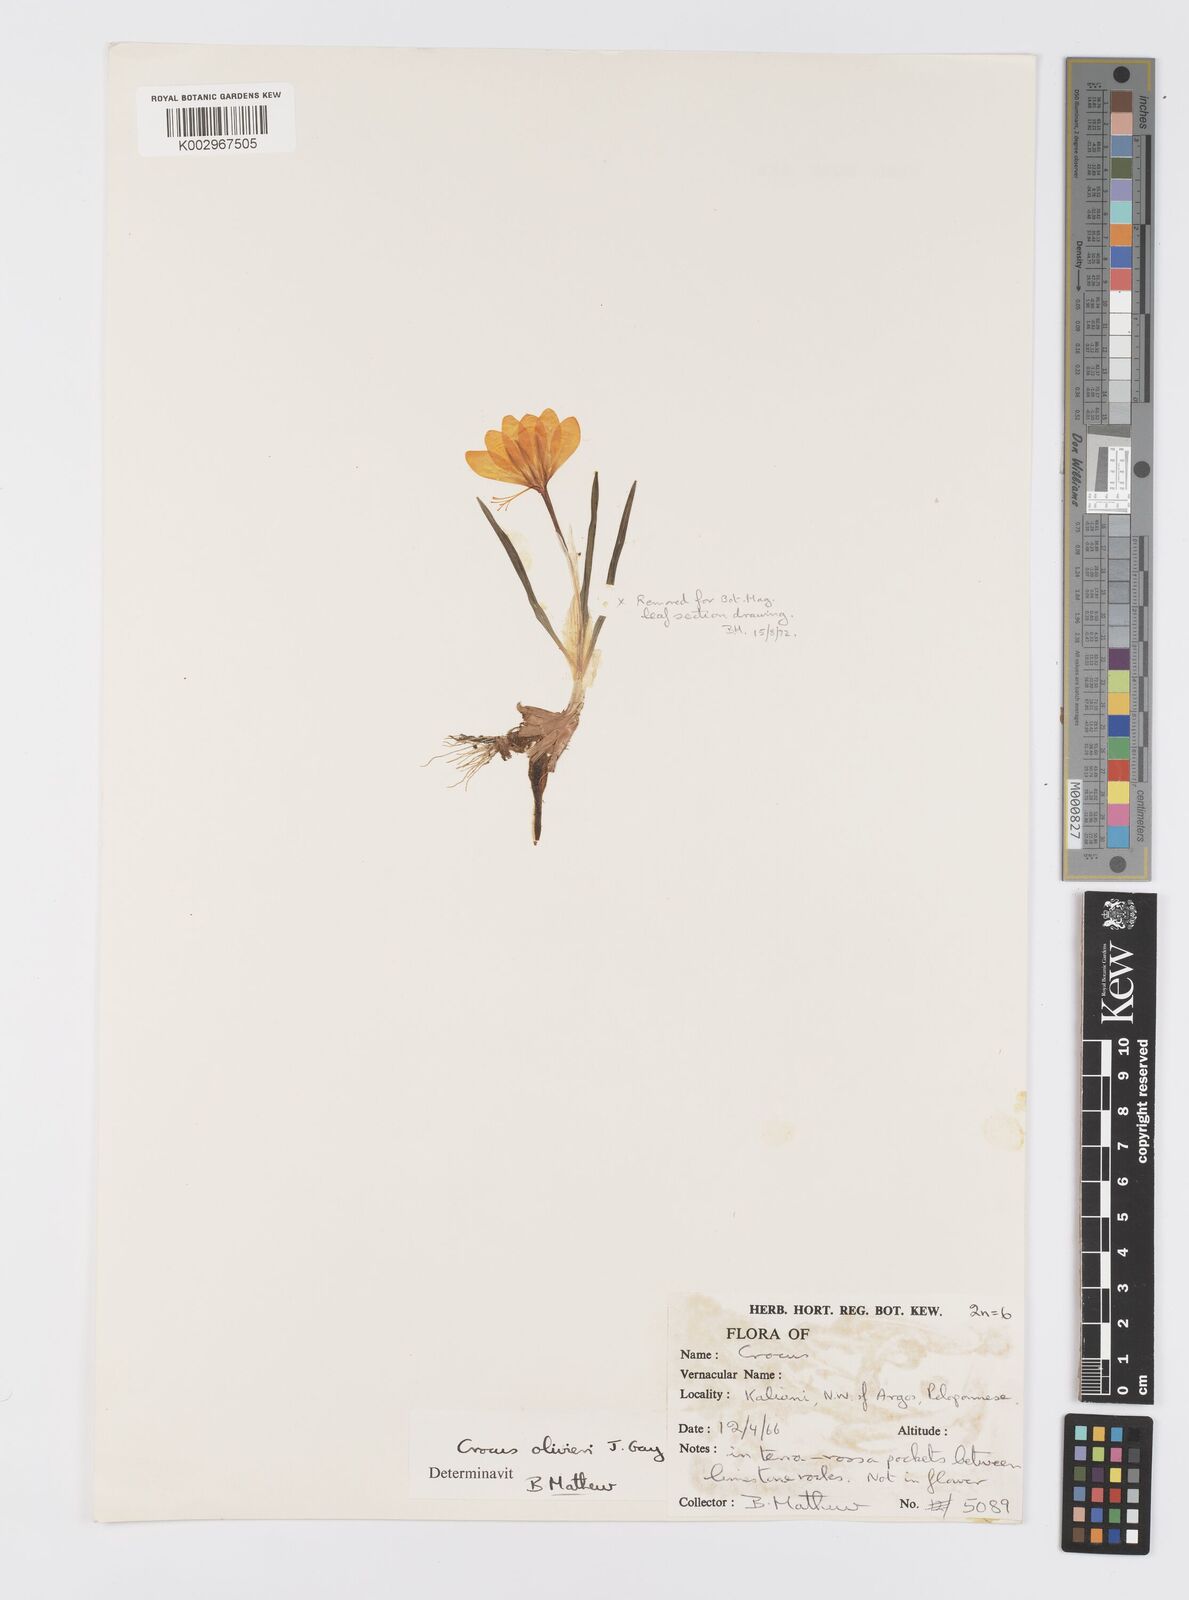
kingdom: Plantae
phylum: Tracheophyta
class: Liliopsida
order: Asparagales
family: Iridaceae
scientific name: Iridaceae
